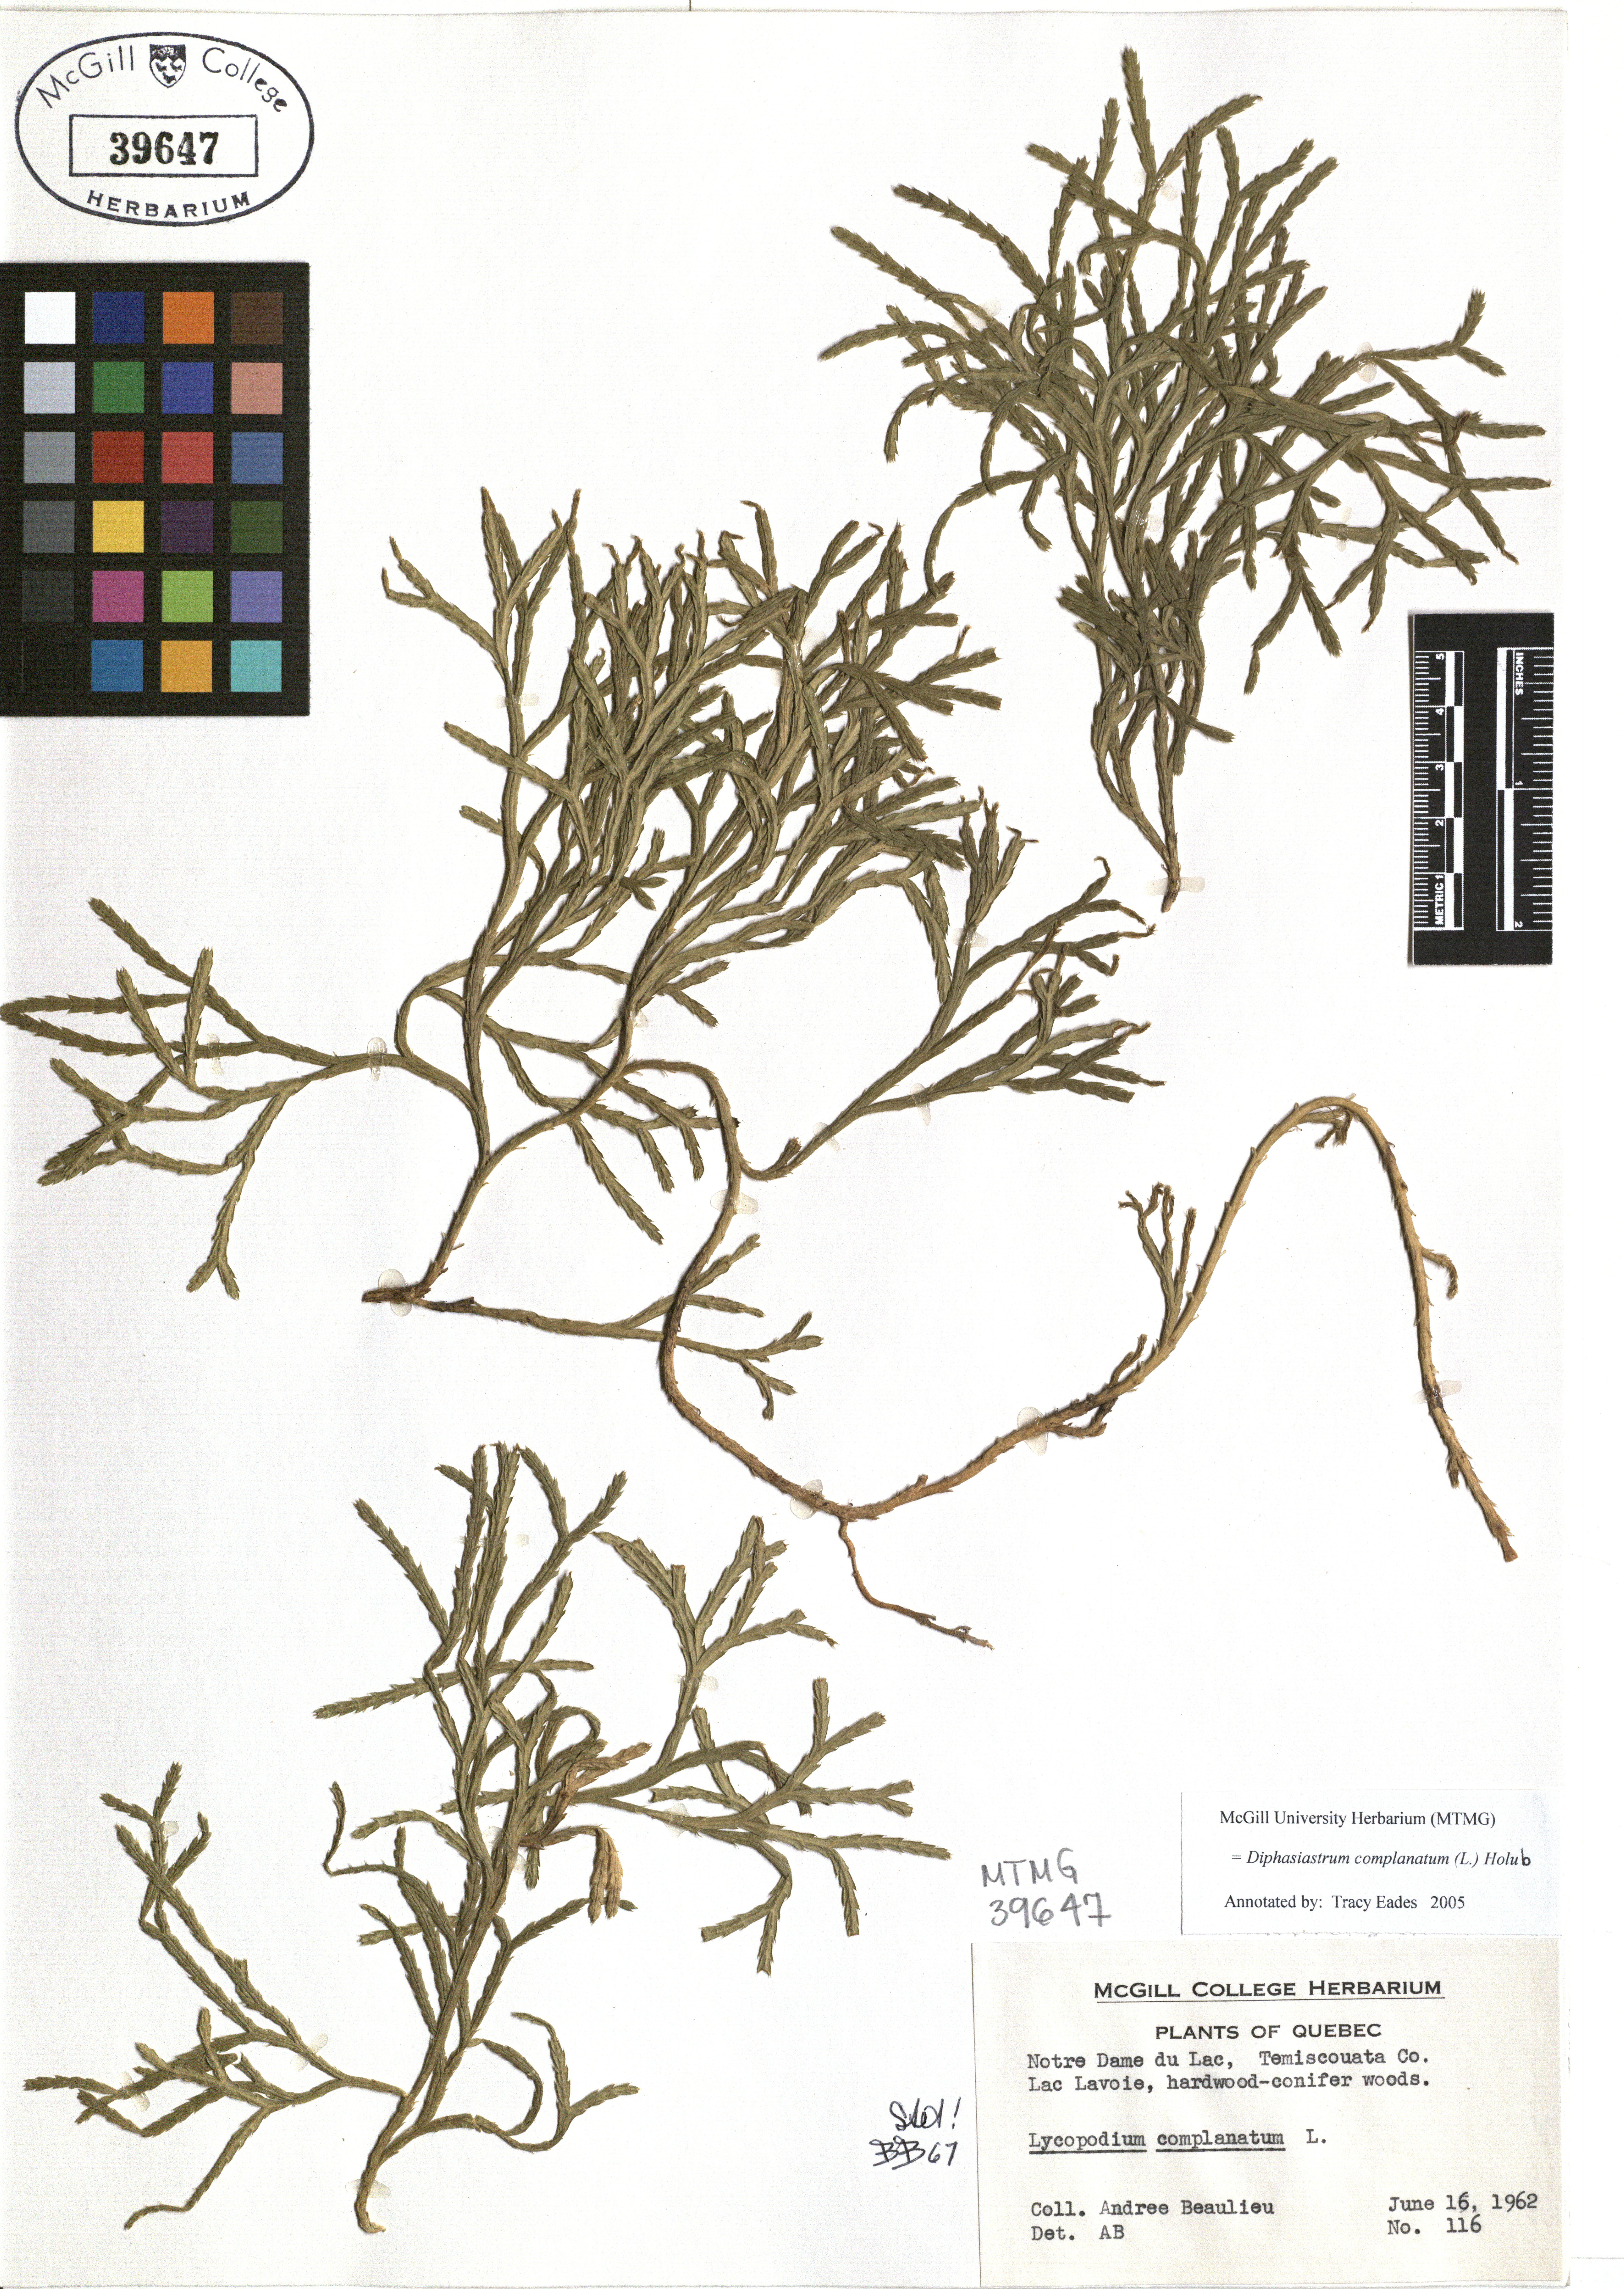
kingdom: Plantae
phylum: Tracheophyta
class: Lycopodiopsida
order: Lycopodiales
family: Lycopodiaceae
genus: Diphasiastrum
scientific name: Diphasiastrum complanatum
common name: Northern running-pine
